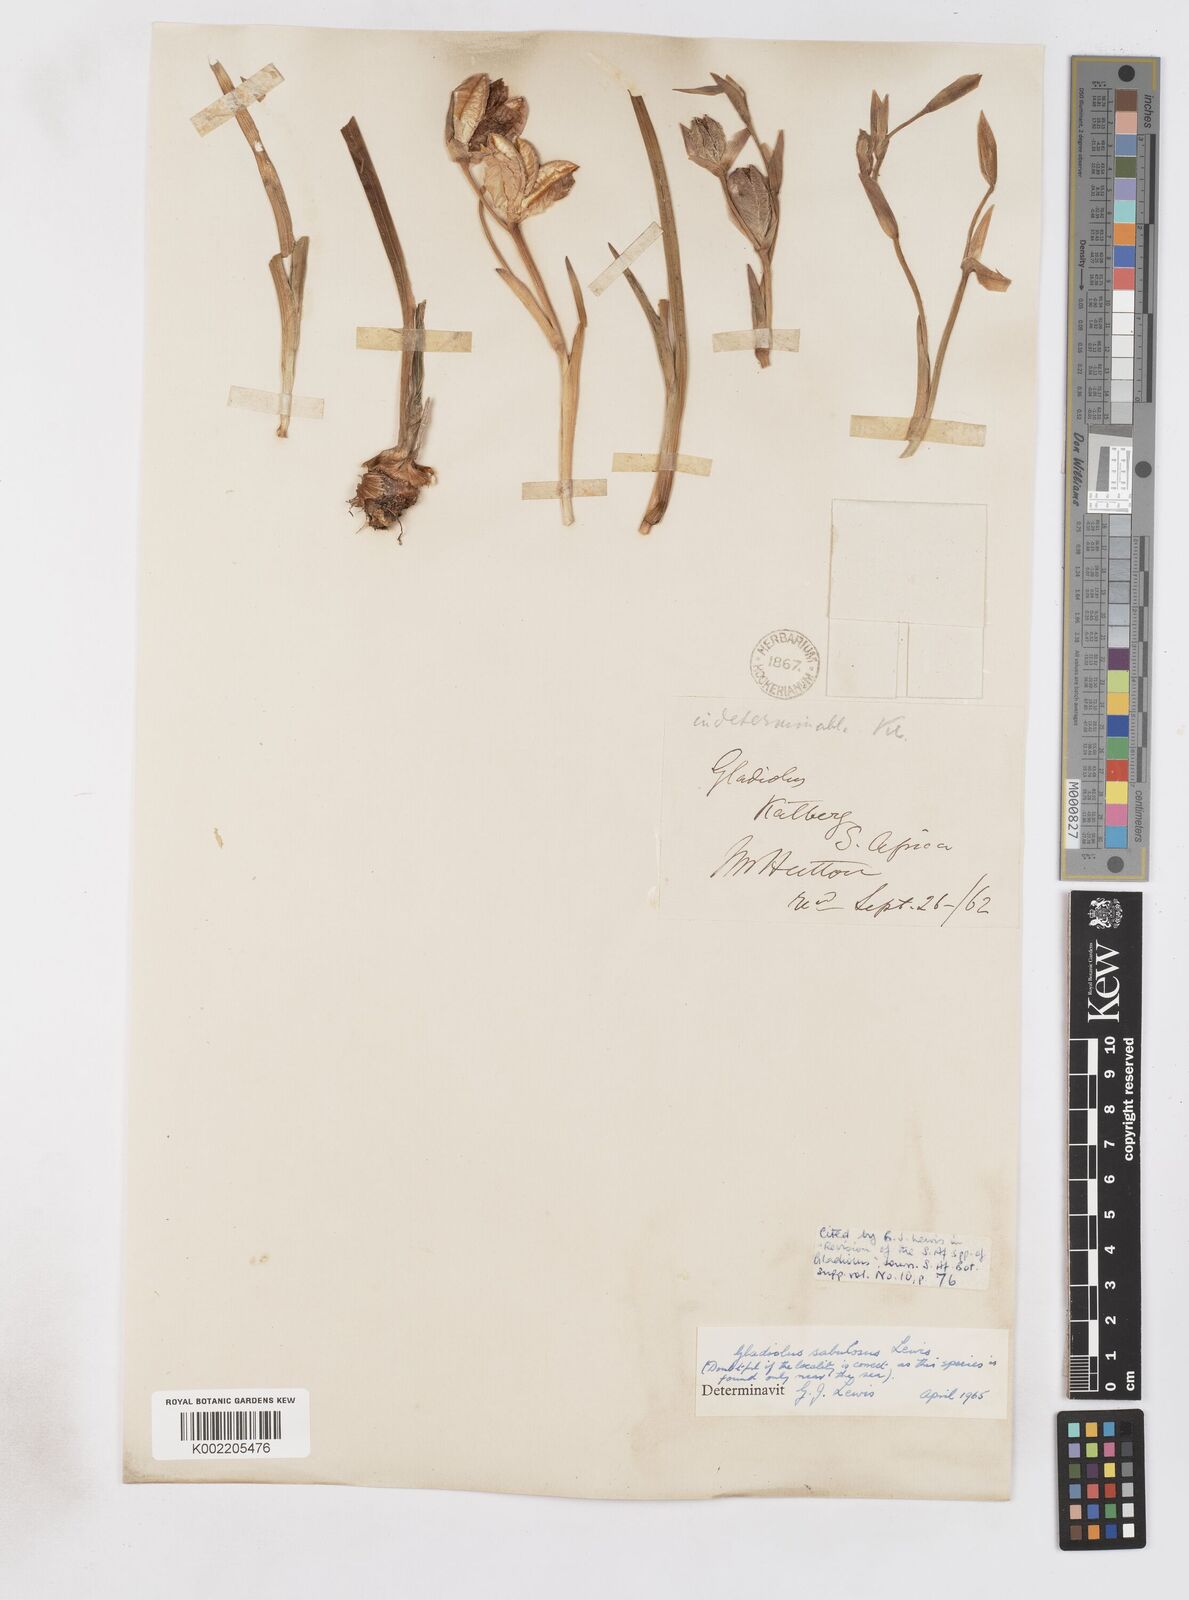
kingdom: Plantae
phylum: Tracheophyta
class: Liliopsida
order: Asparagales
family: Iridaceae
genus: Gladiolus
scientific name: Gladiolus gueinzii
